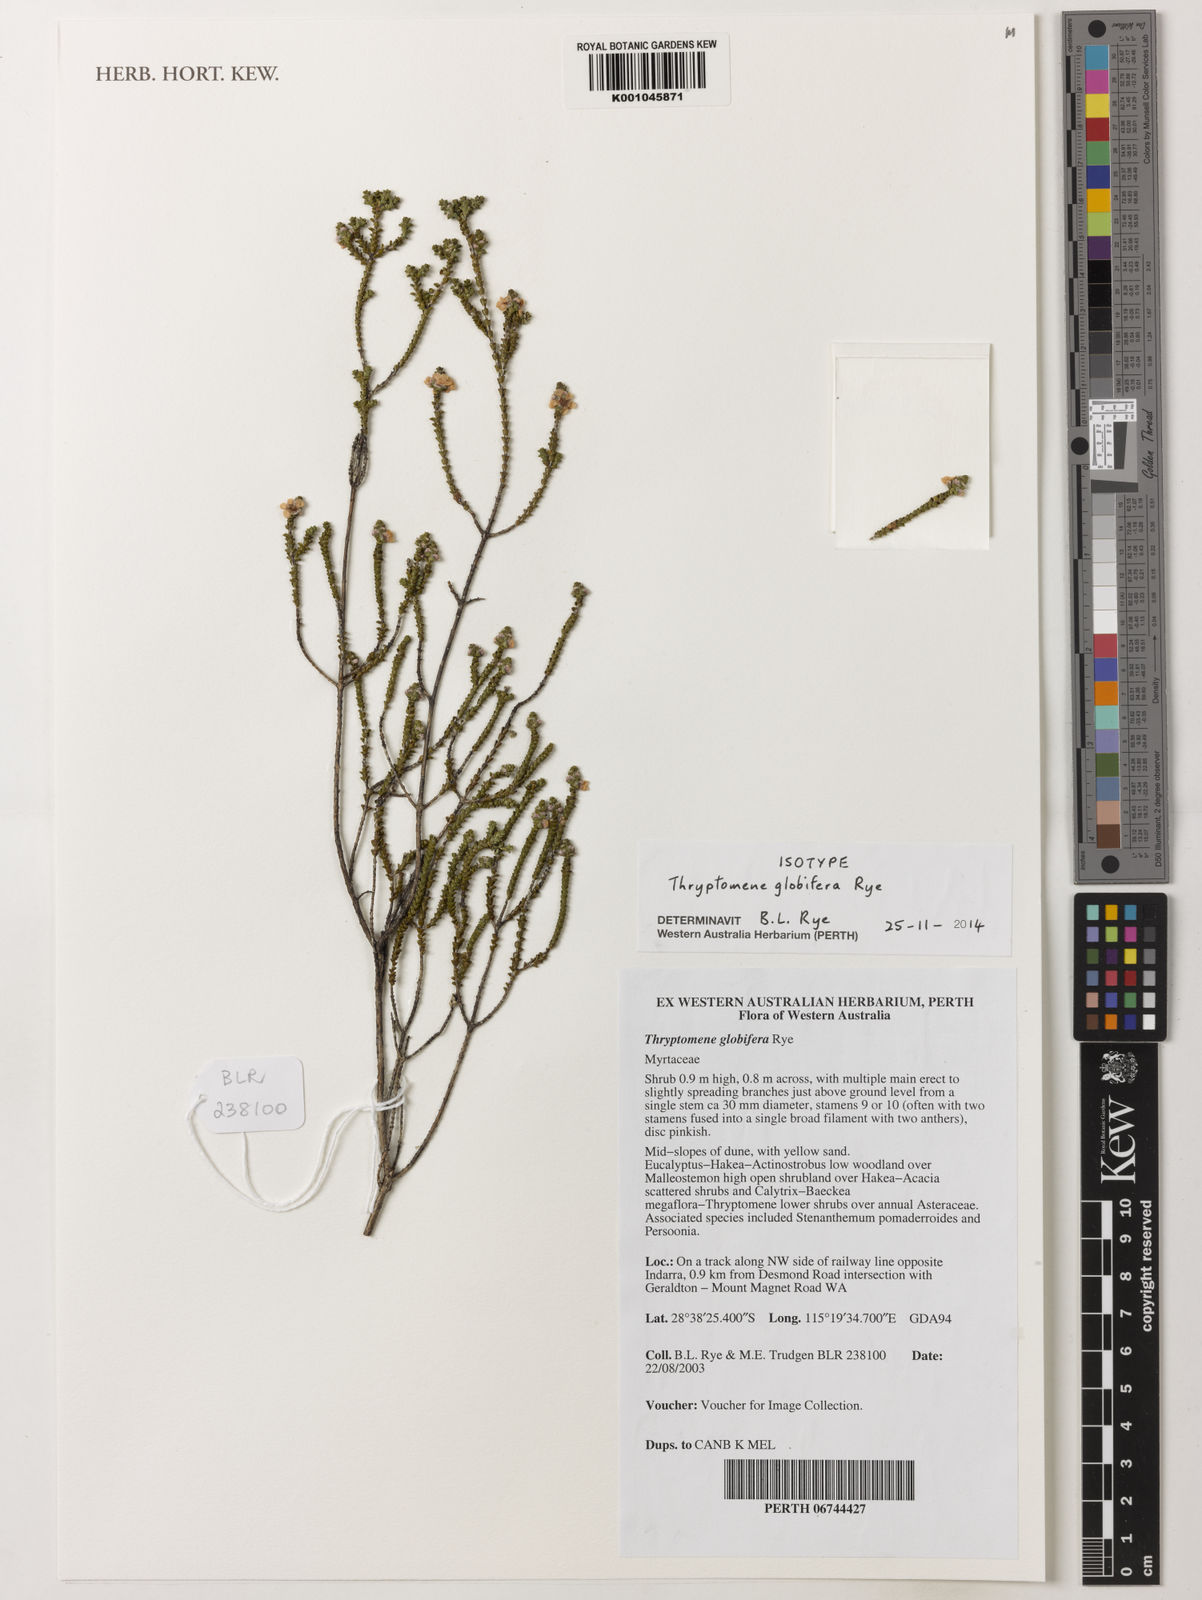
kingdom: Plantae
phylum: Tracheophyta
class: Magnoliopsida
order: Myrtales
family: Myrtaceae
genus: Thryptomene
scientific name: Thryptomene globifera
